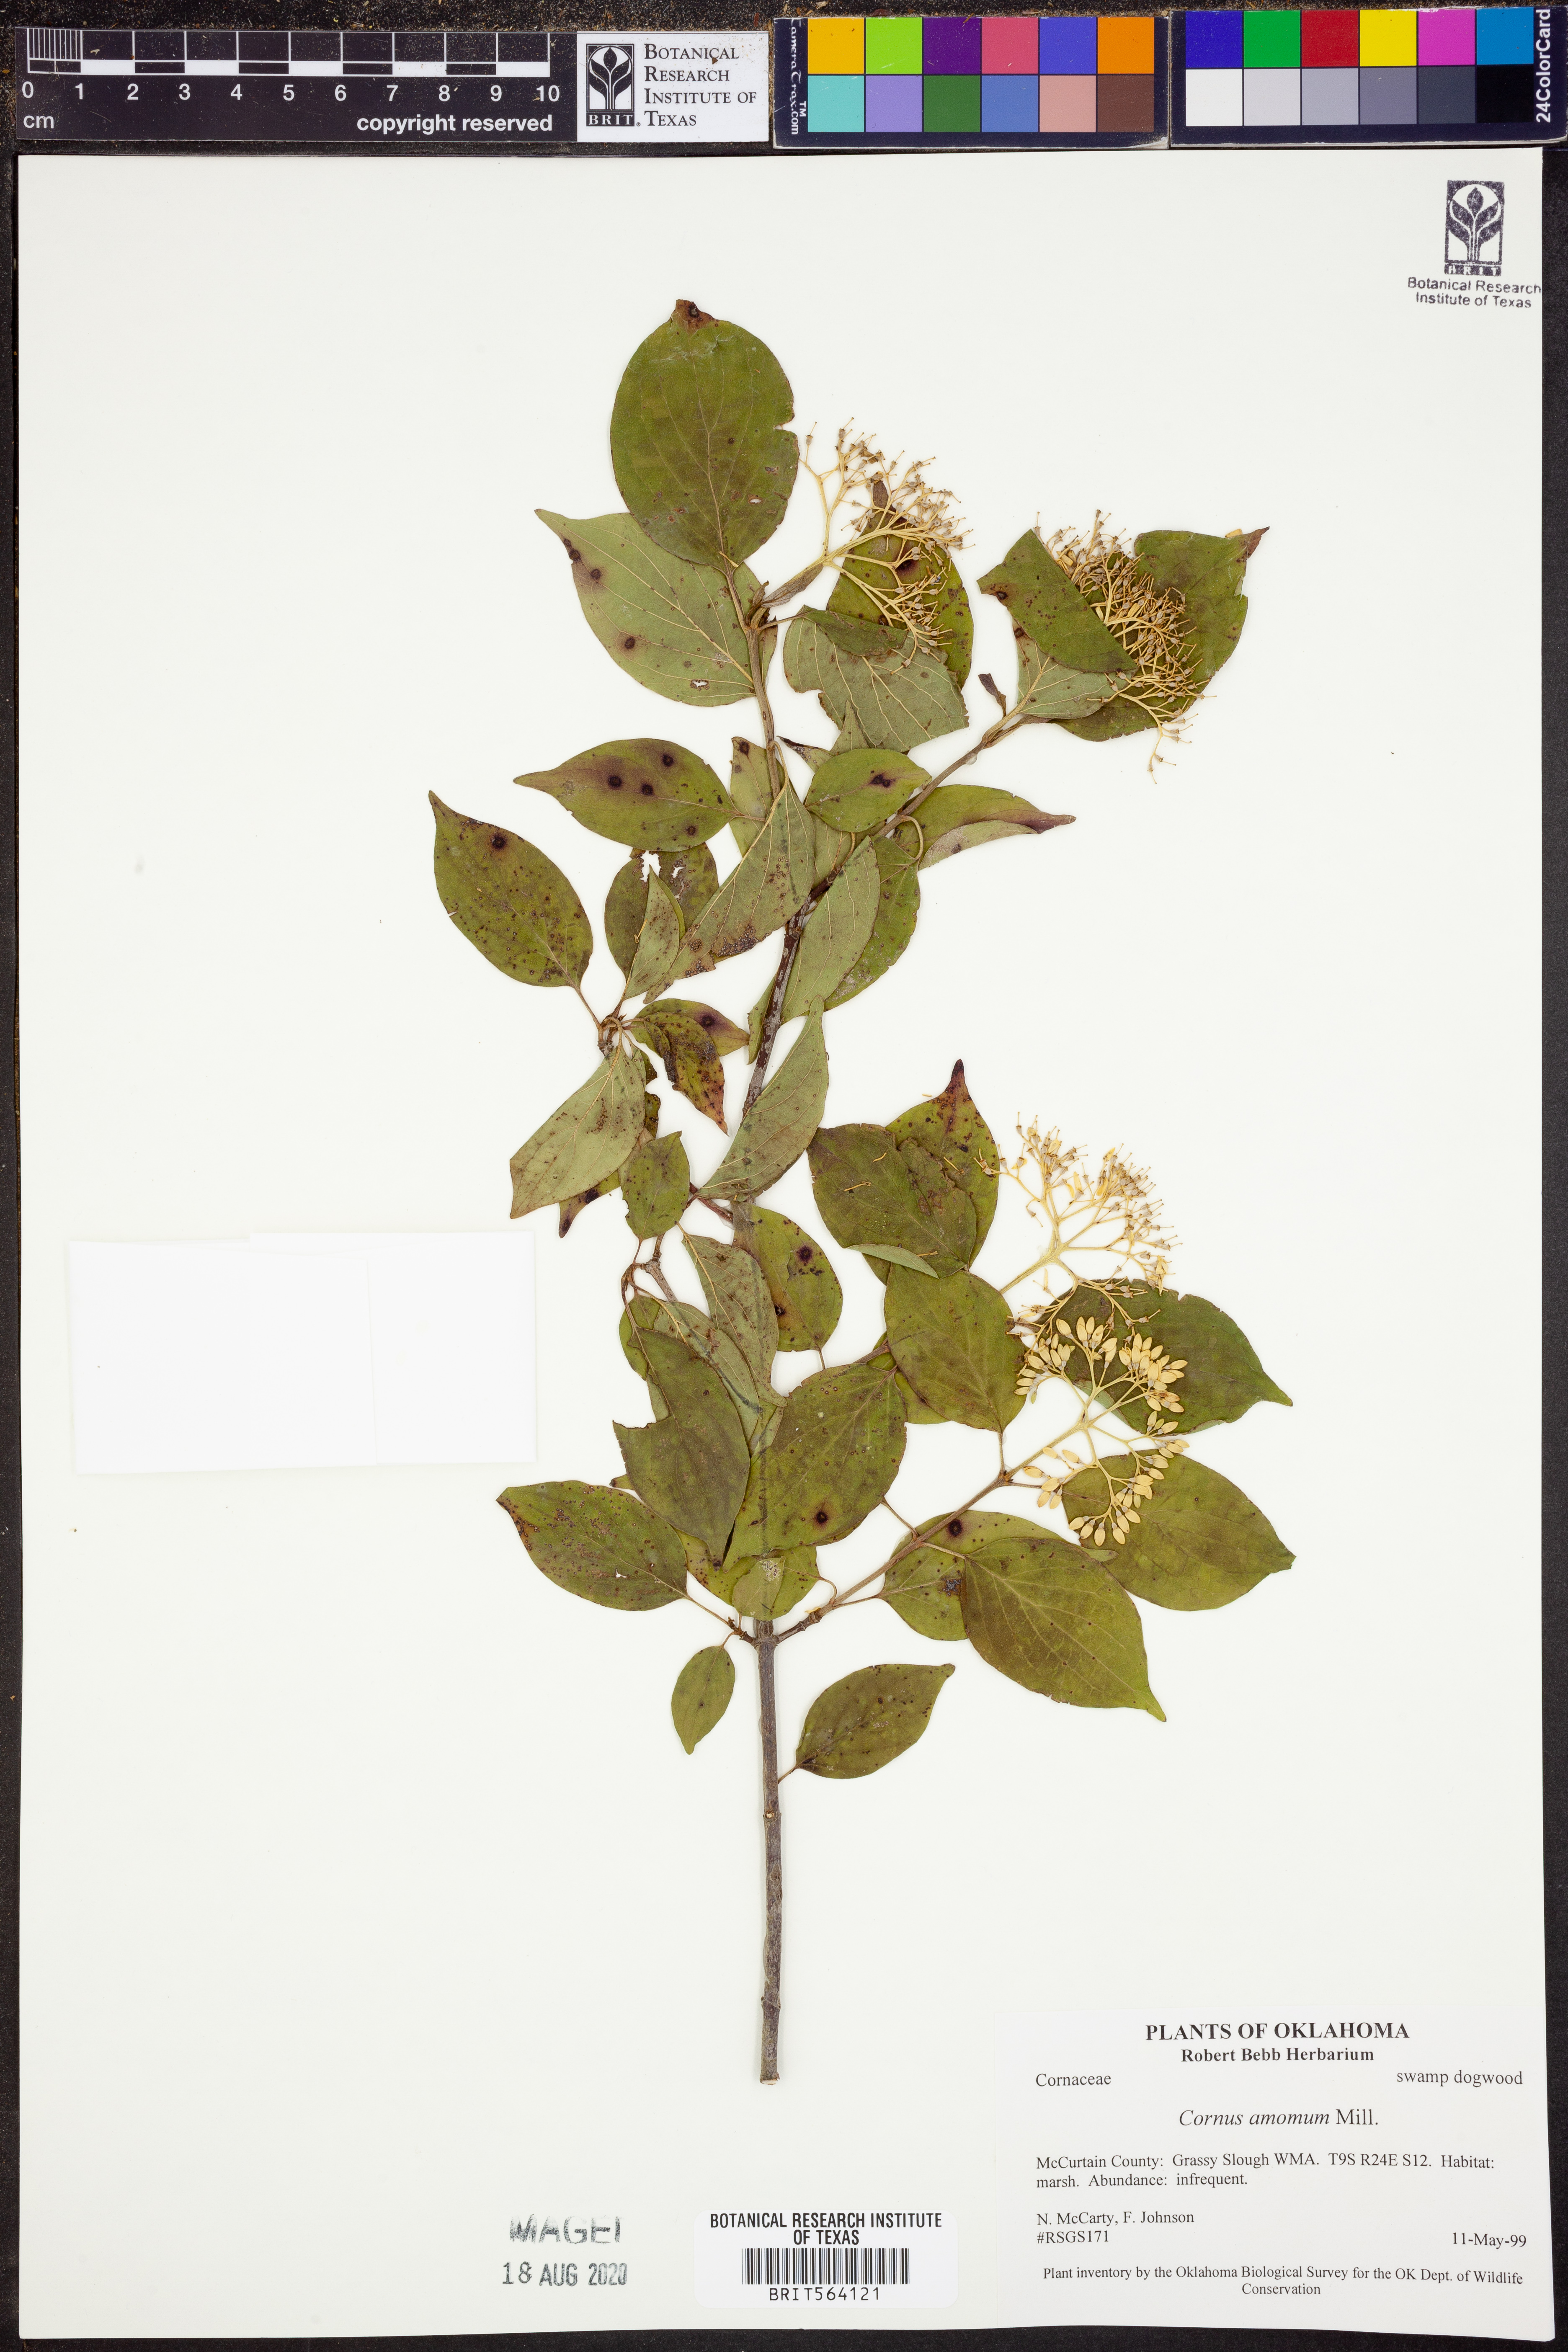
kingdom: Plantae
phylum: Tracheophyta
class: Magnoliopsida
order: Cornales
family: Cornaceae
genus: Cornus
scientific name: Cornus amomum
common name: Silky dogwood
